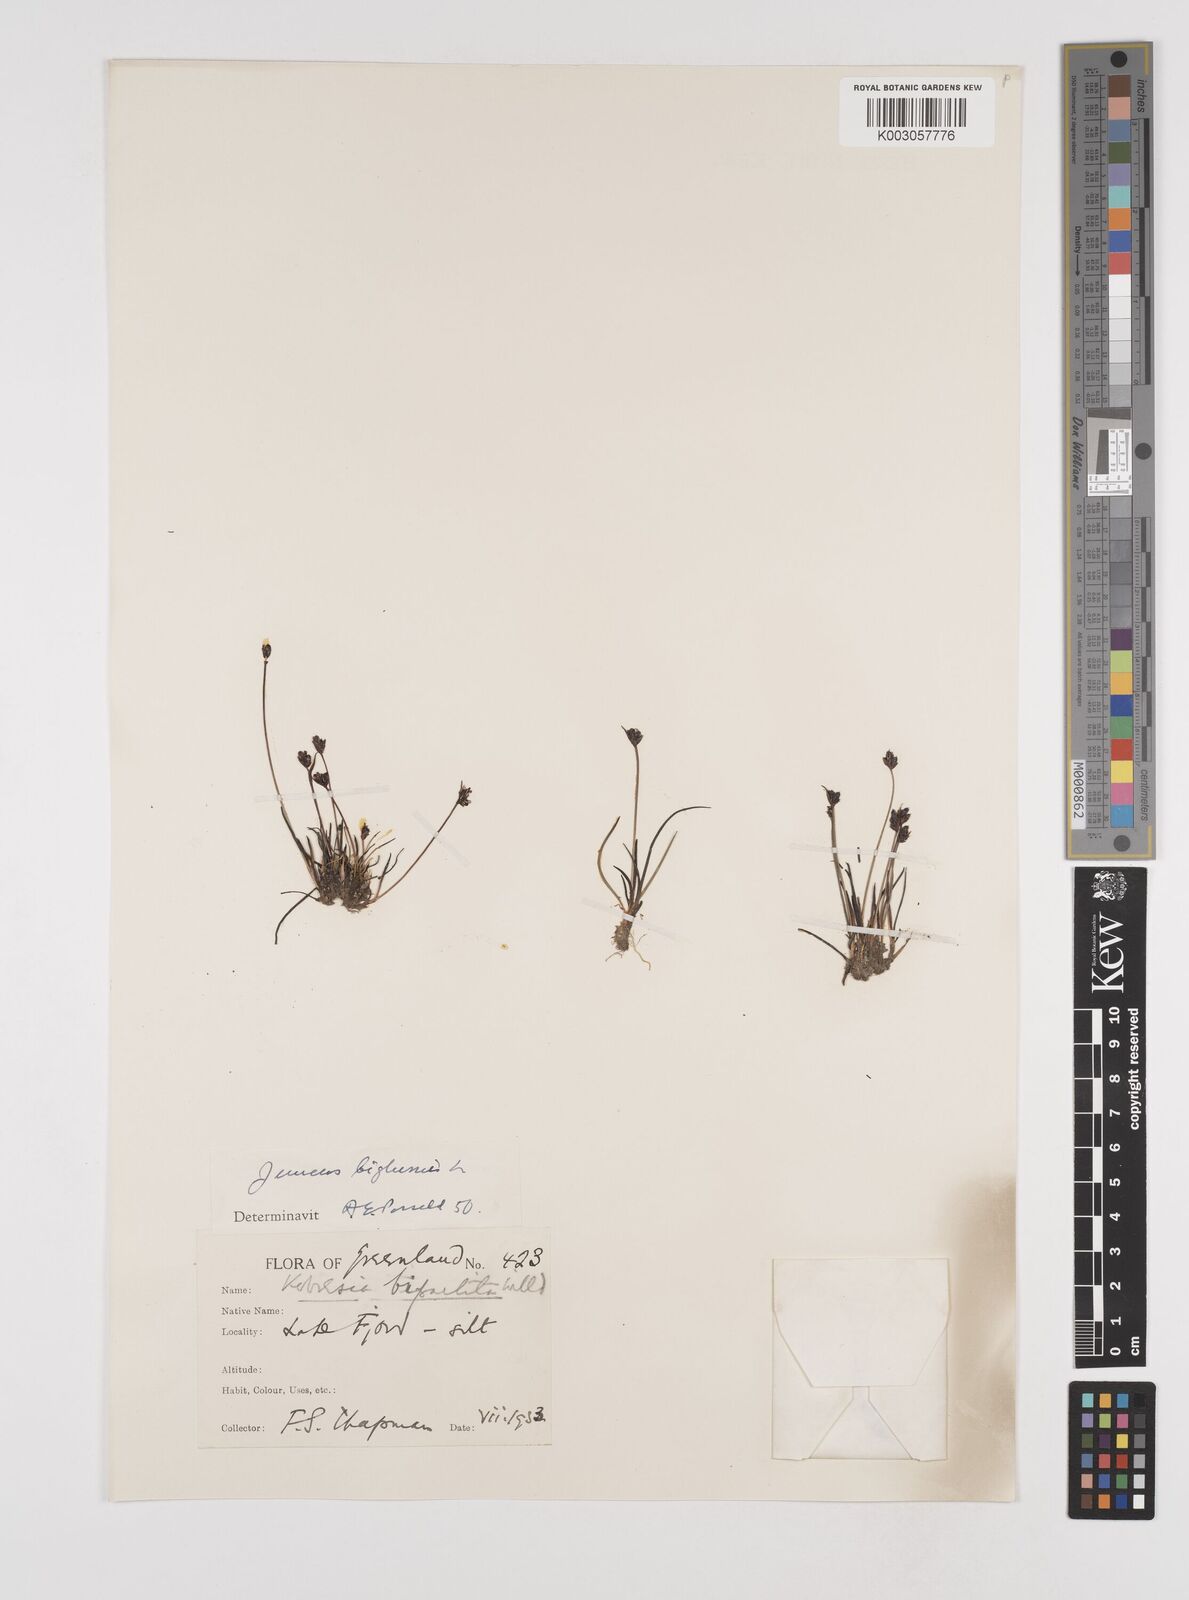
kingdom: Plantae
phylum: Tracheophyta
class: Liliopsida
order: Poales
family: Juncaceae
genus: Juncus
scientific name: Juncus biglumis
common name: Two-flowered rush
